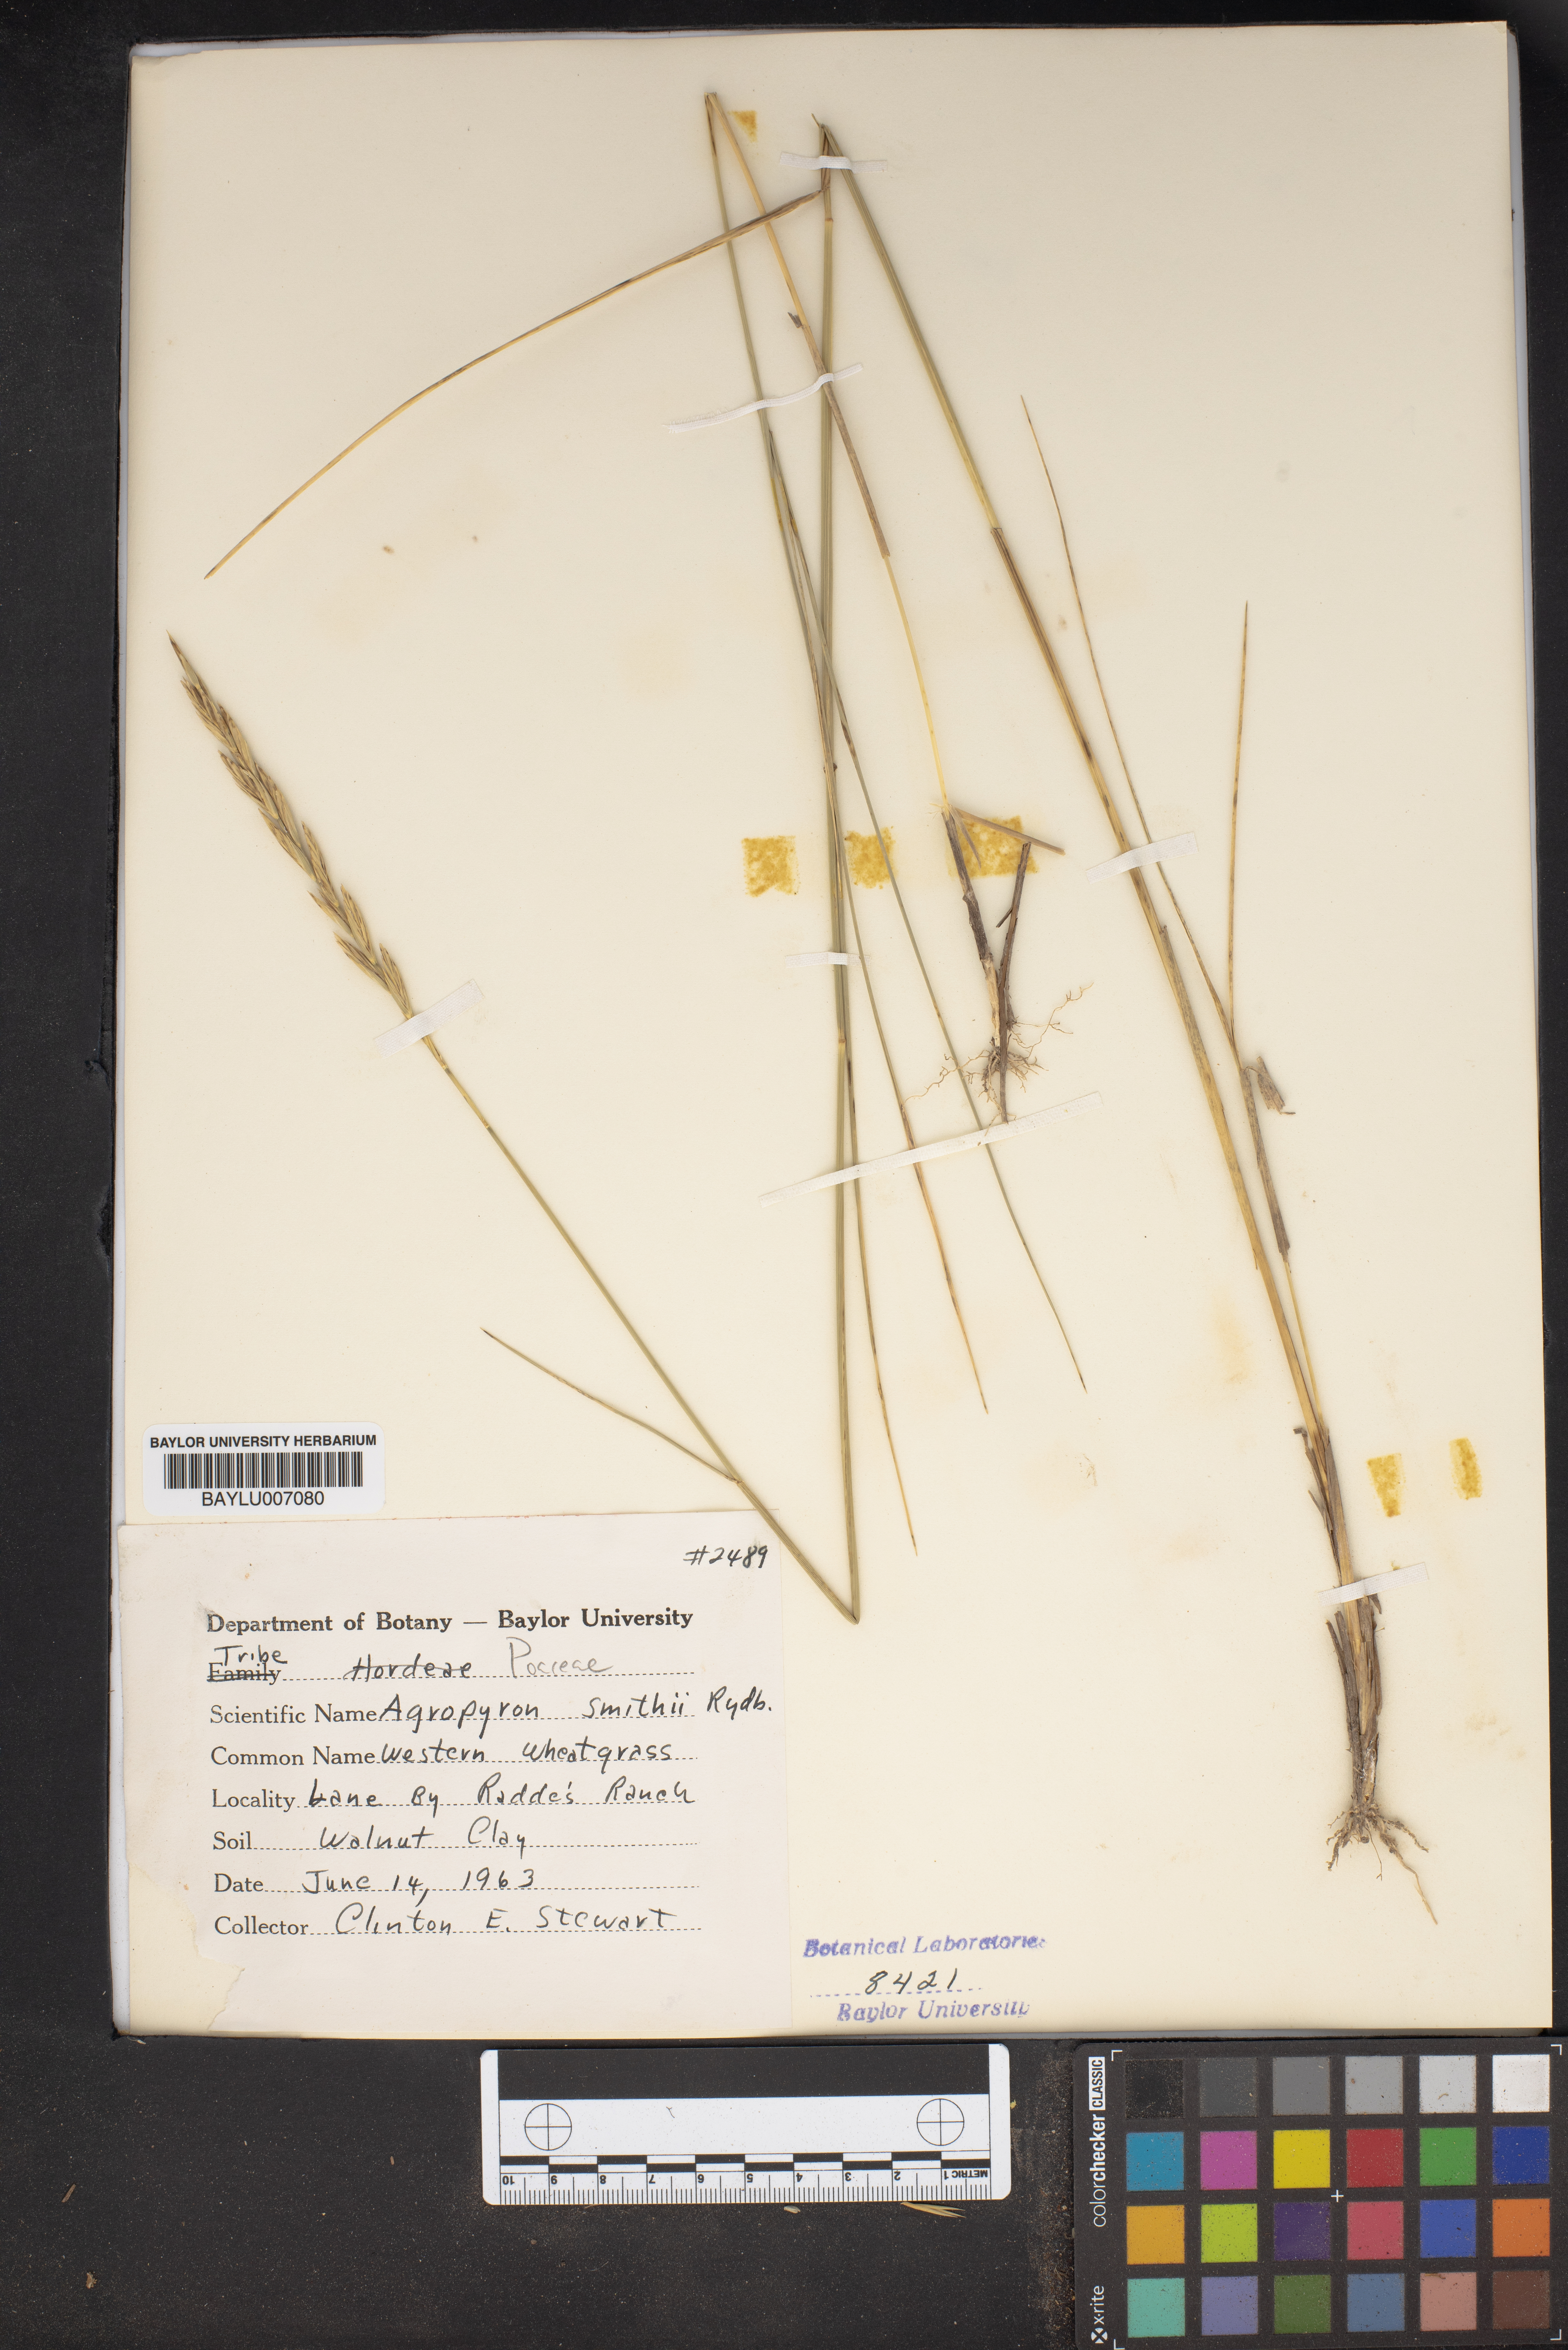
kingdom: Plantae
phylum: Tracheophyta
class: Liliopsida
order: Poales
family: Poaceae
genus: Elymus
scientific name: Elymus smithii
